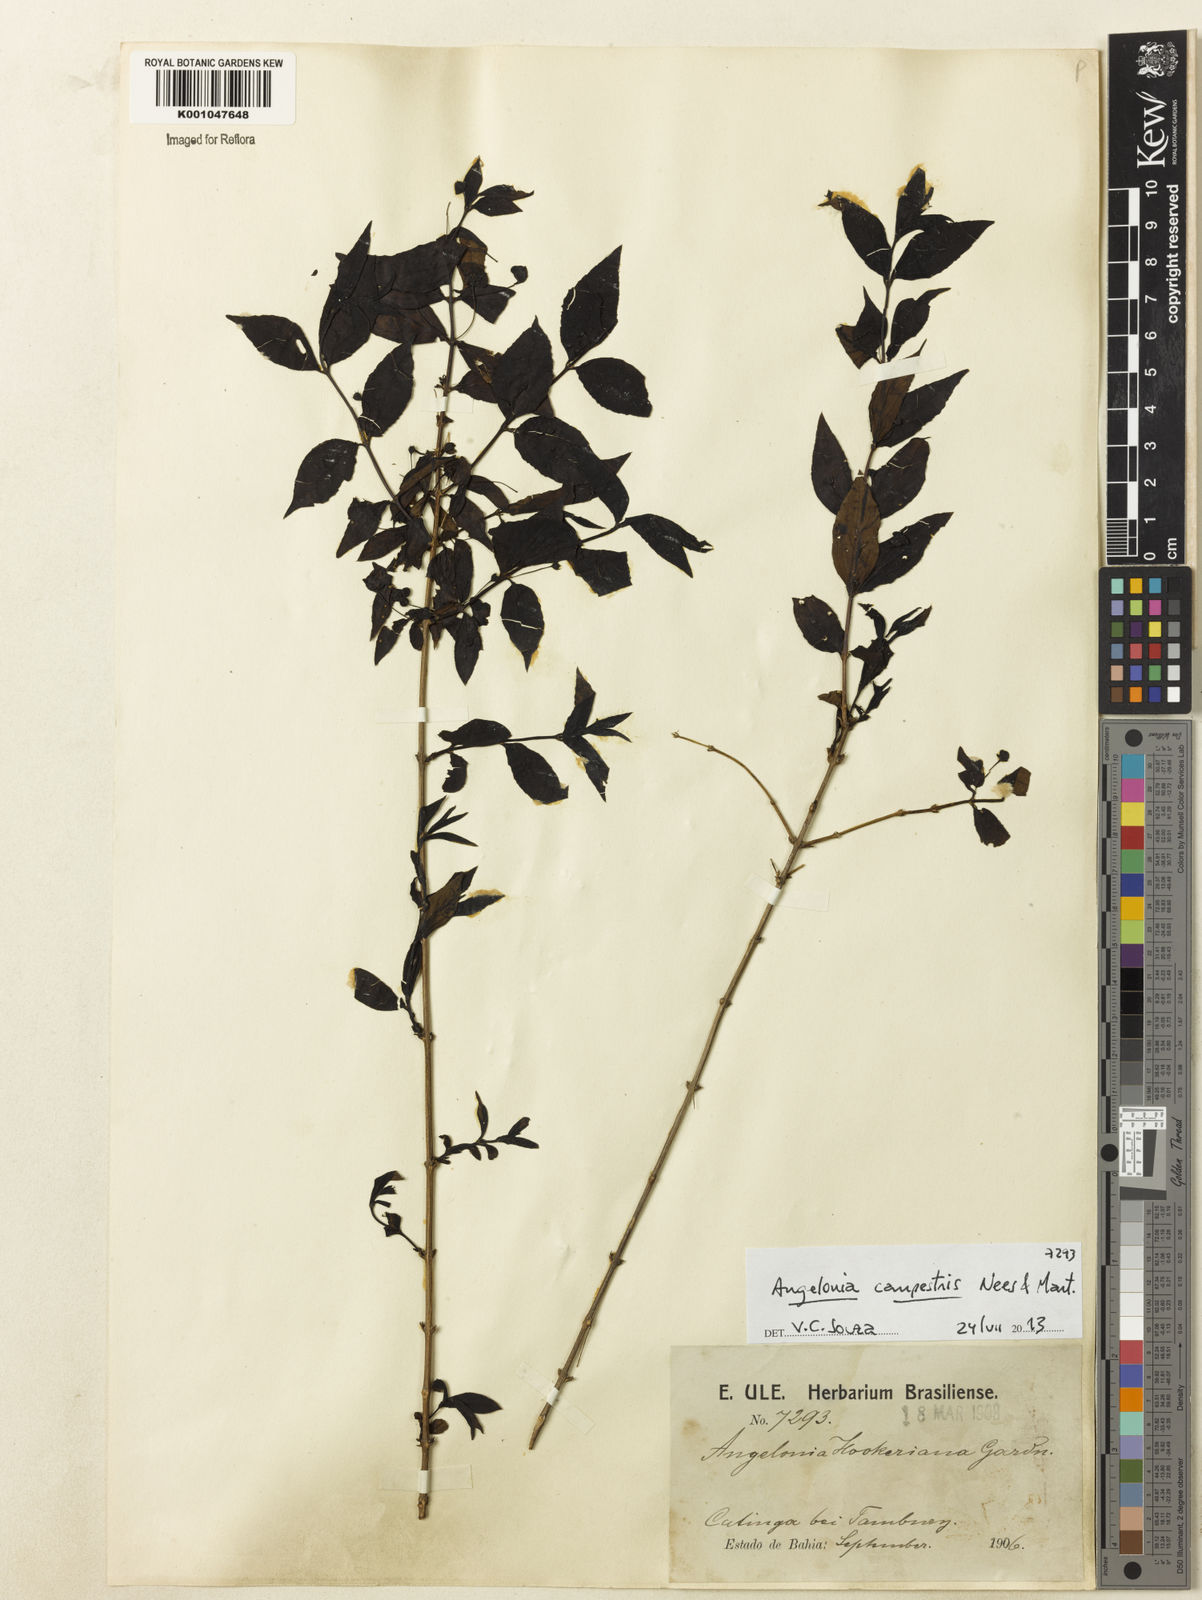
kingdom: Plantae
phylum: Tracheophyta
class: Magnoliopsida
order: Lamiales
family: Plantaginaceae
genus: Angelonia
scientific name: Angelonia campestris
